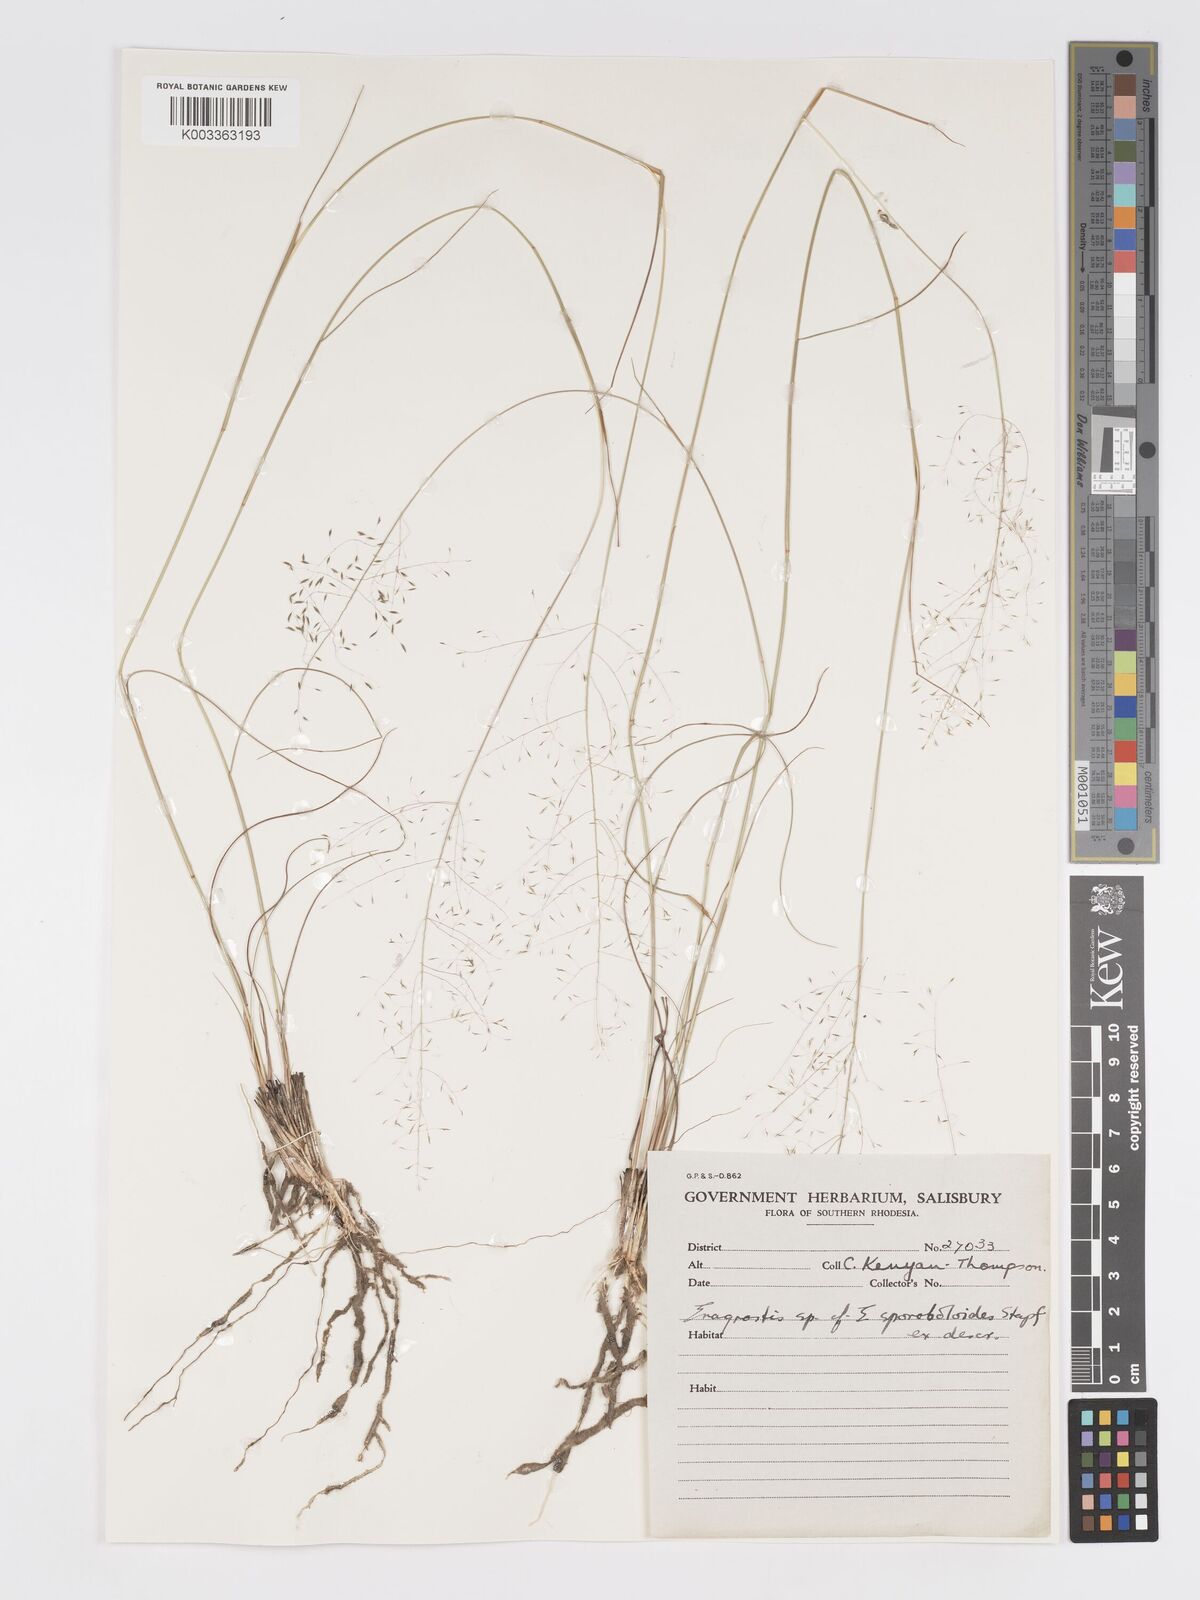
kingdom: Plantae
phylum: Tracheophyta
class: Liliopsida
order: Poales
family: Poaceae
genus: Eragrostis
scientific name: Eragrostis stapfii
